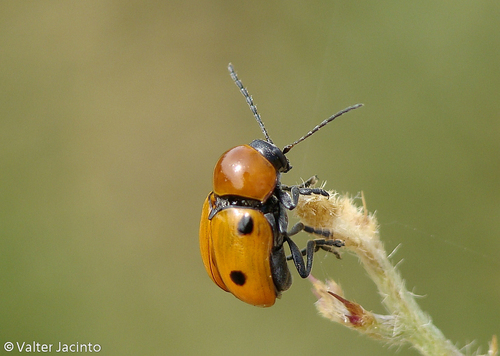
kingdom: Animalia
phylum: Arthropoda
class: Insecta
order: Coleoptera
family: Chrysomelidae
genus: Cryptocephalus
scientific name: Cryptocephalus infirmior
